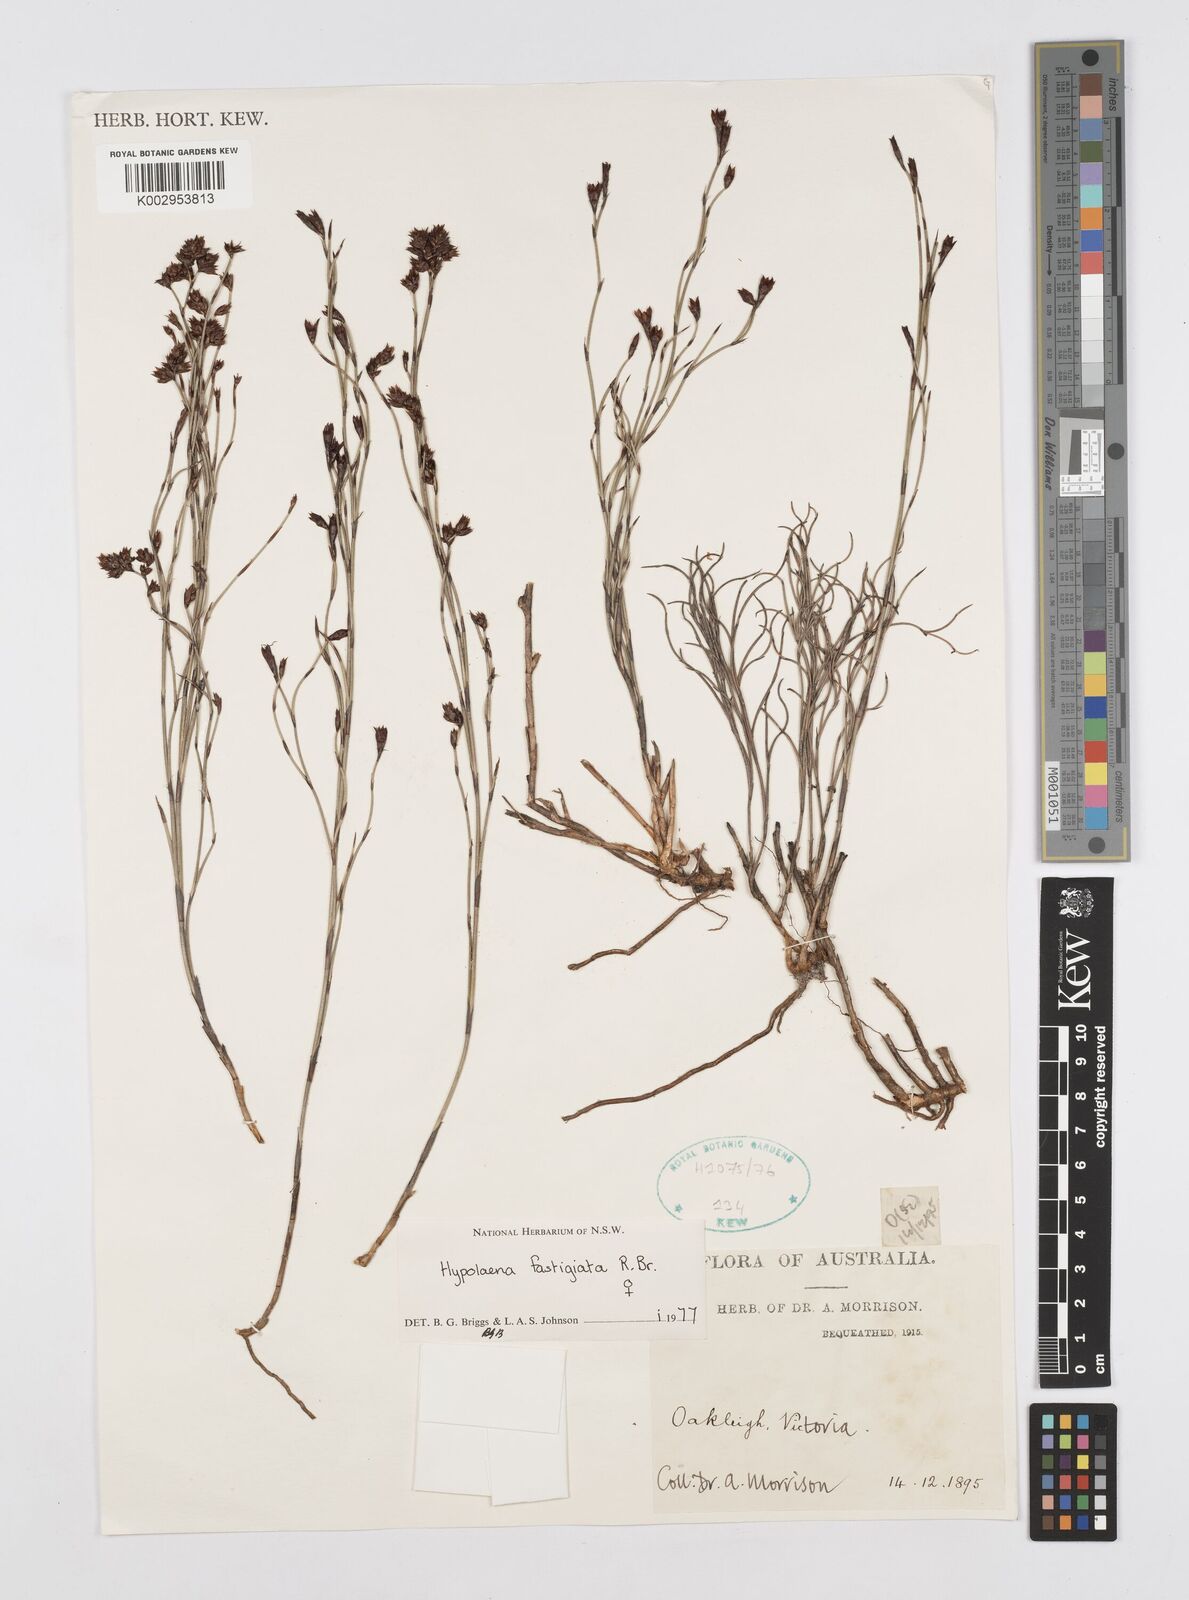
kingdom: Plantae
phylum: Tracheophyta
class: Liliopsida
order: Poales
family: Restionaceae
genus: Hypolaena
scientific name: Hypolaena fastigiata
